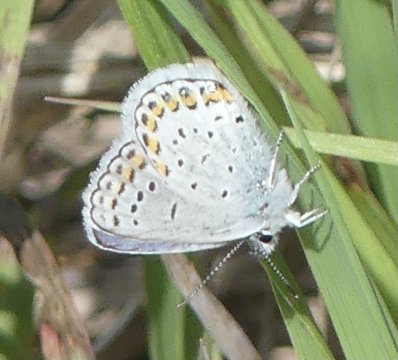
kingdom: Animalia
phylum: Arthropoda
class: Insecta
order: Lepidoptera
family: Lycaenidae
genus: Lycaeides
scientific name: Lycaeides melissa
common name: Melissa Blue
